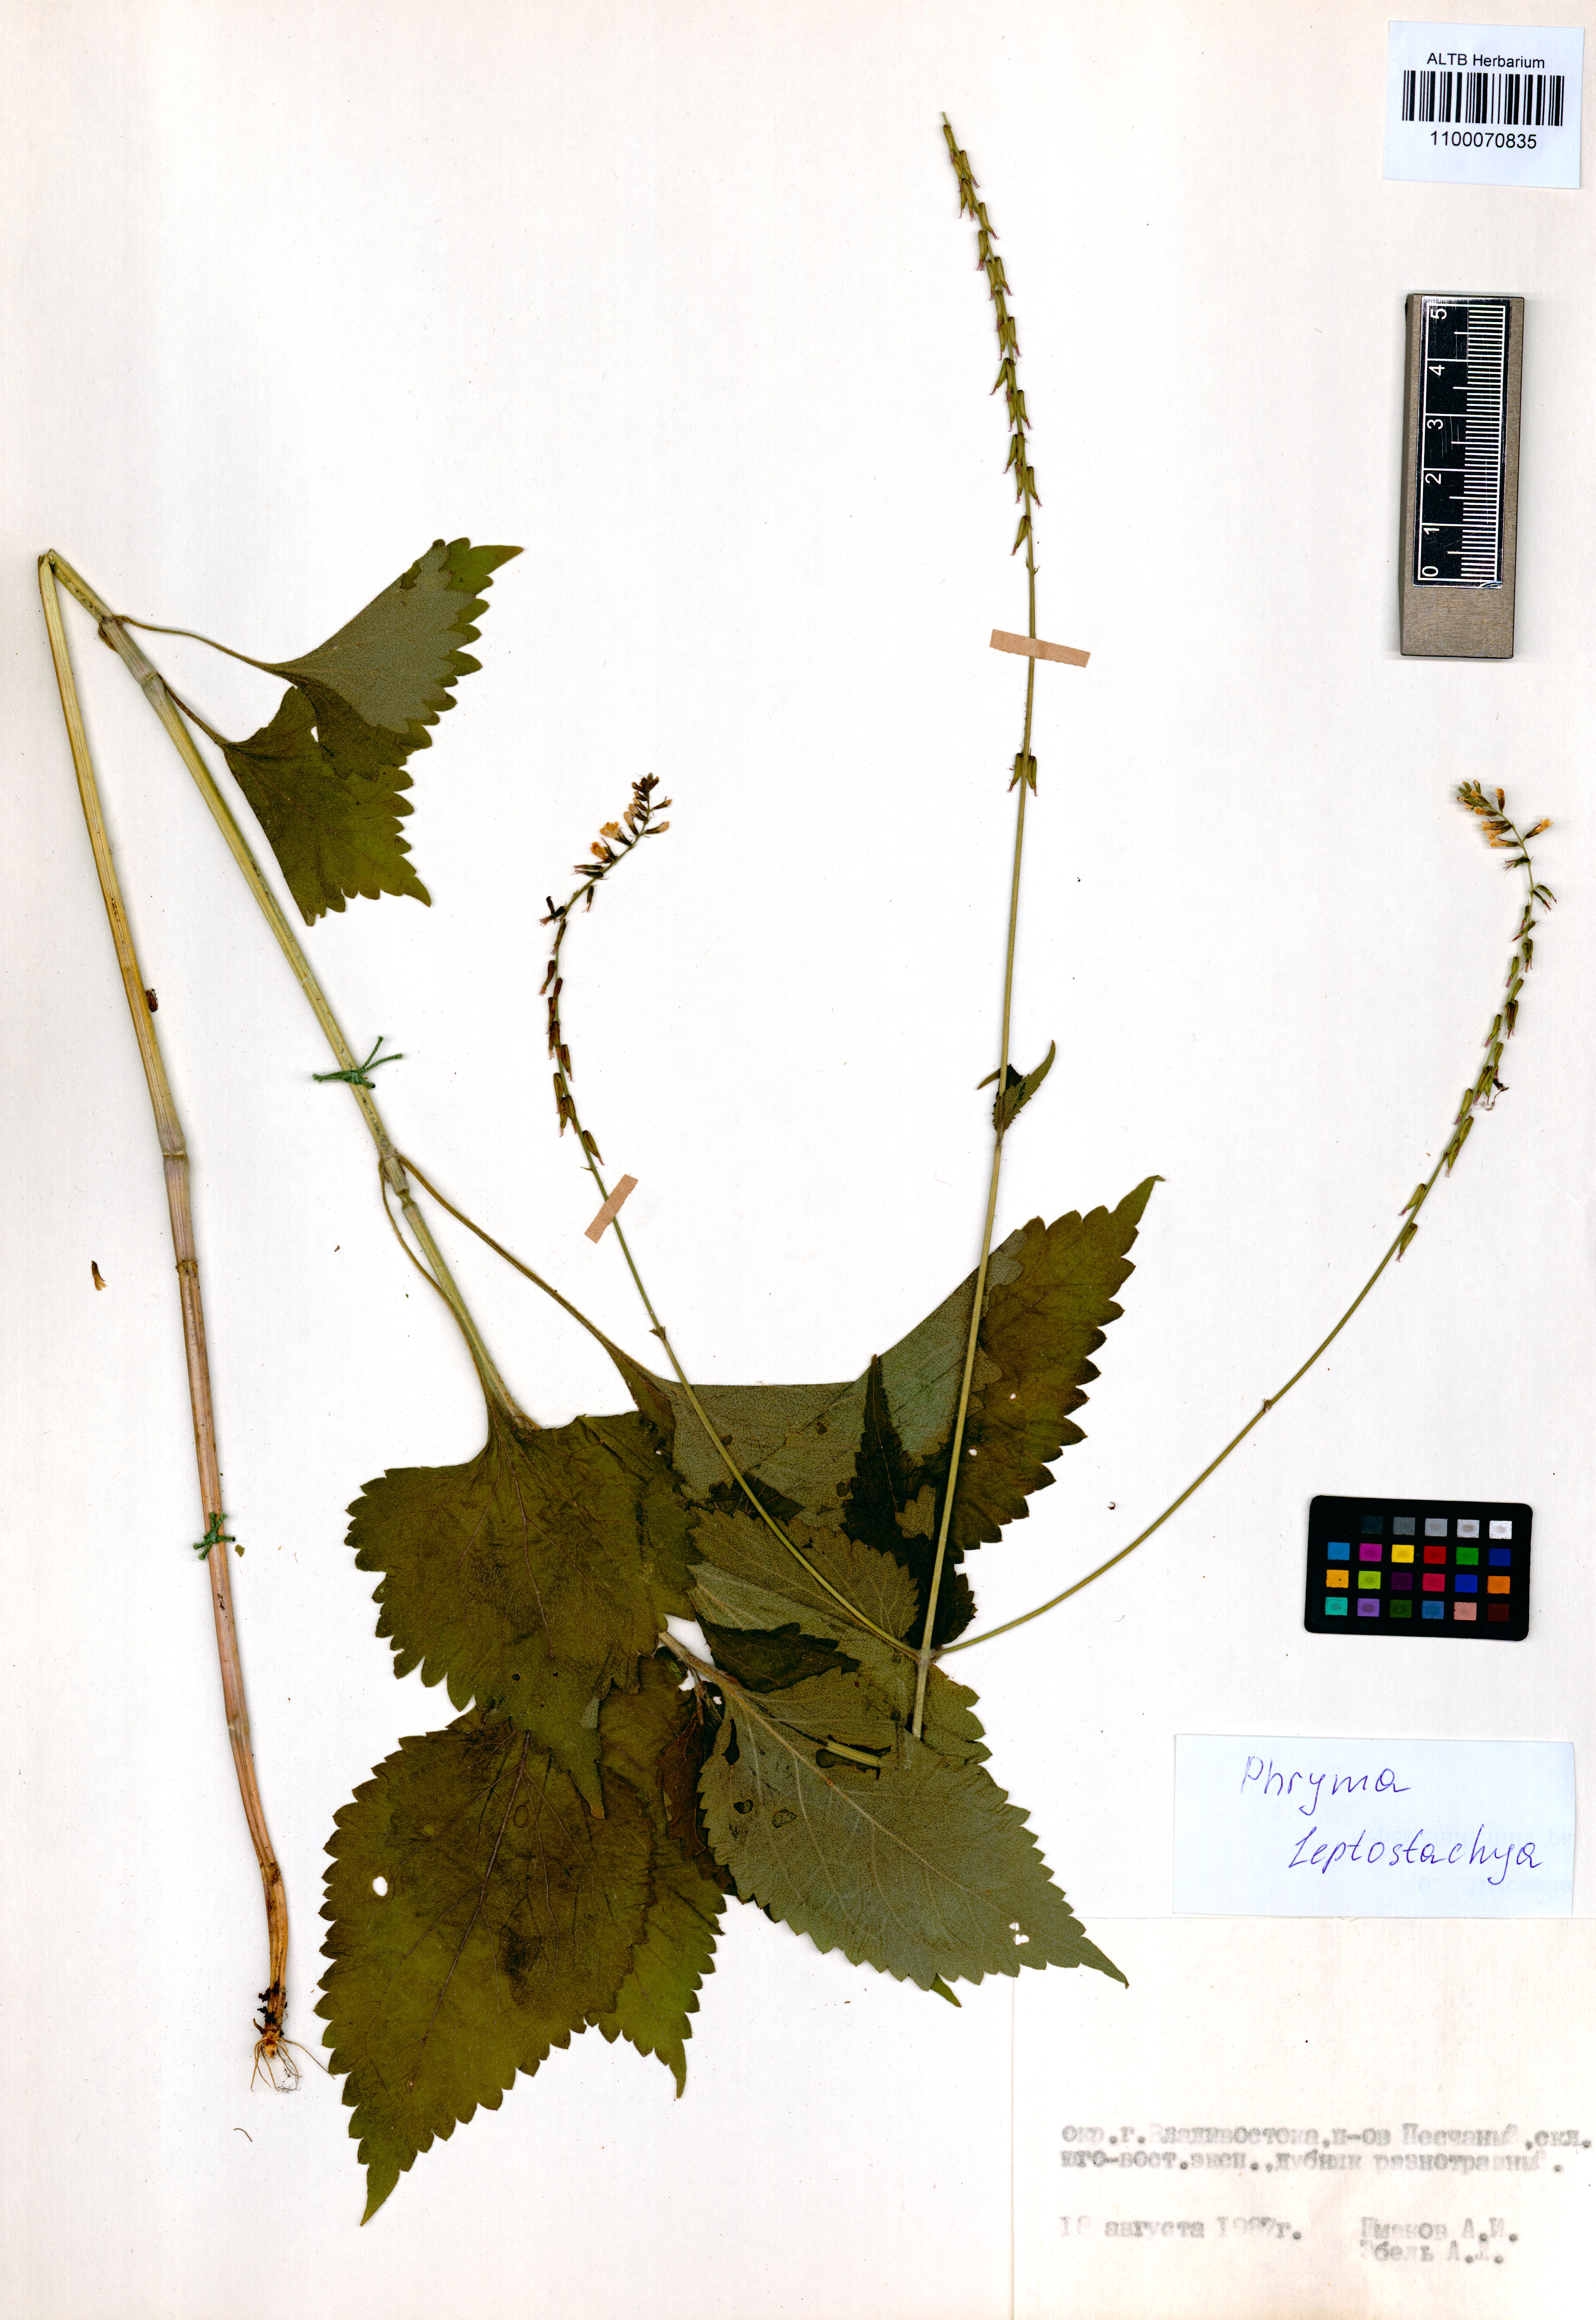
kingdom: Plantae
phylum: Tracheophyta
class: Magnoliopsida
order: Lamiales
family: Phrymaceae
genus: Phryma
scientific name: Phryma leptostachya
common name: American lopseed
